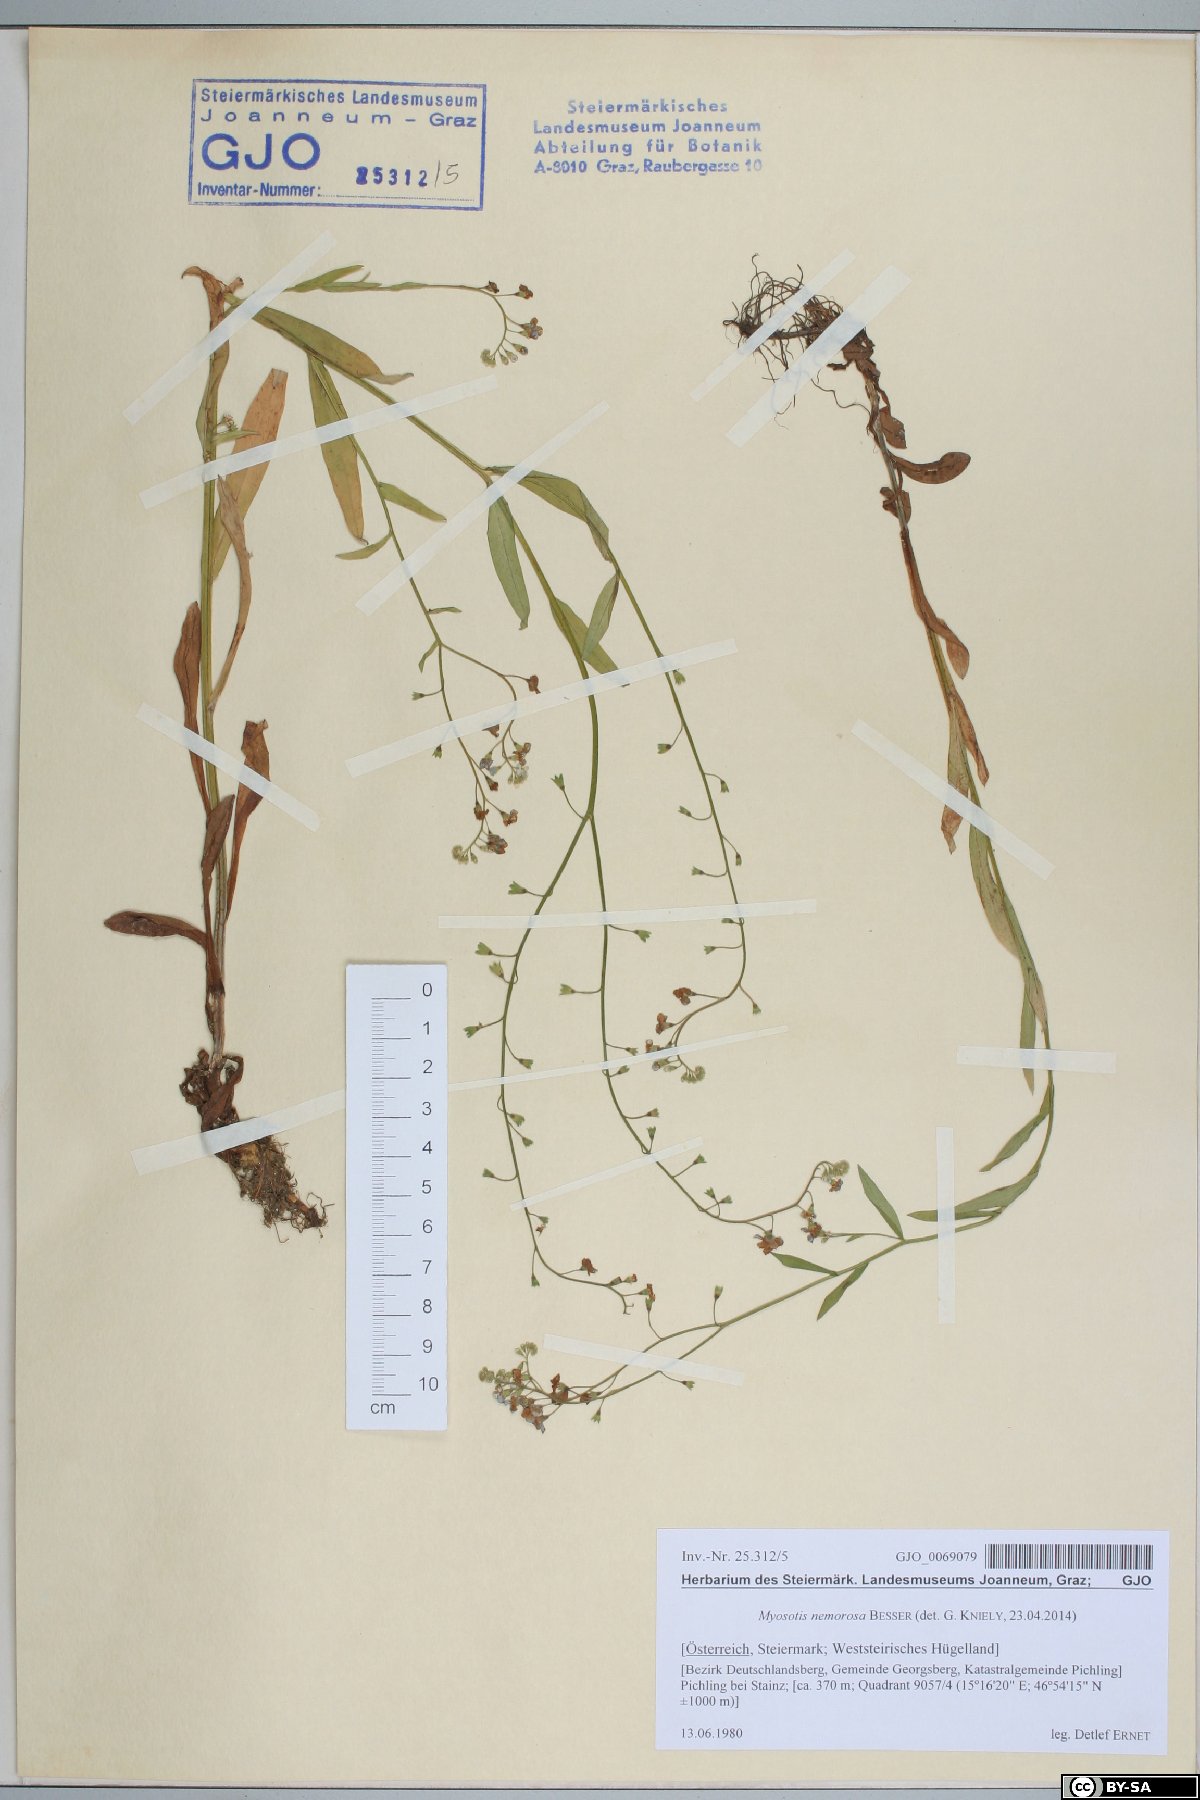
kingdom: Plantae
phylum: Tracheophyta
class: Magnoliopsida
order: Boraginales
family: Boraginaceae
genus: Myosotis
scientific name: Myosotis nemorosa
